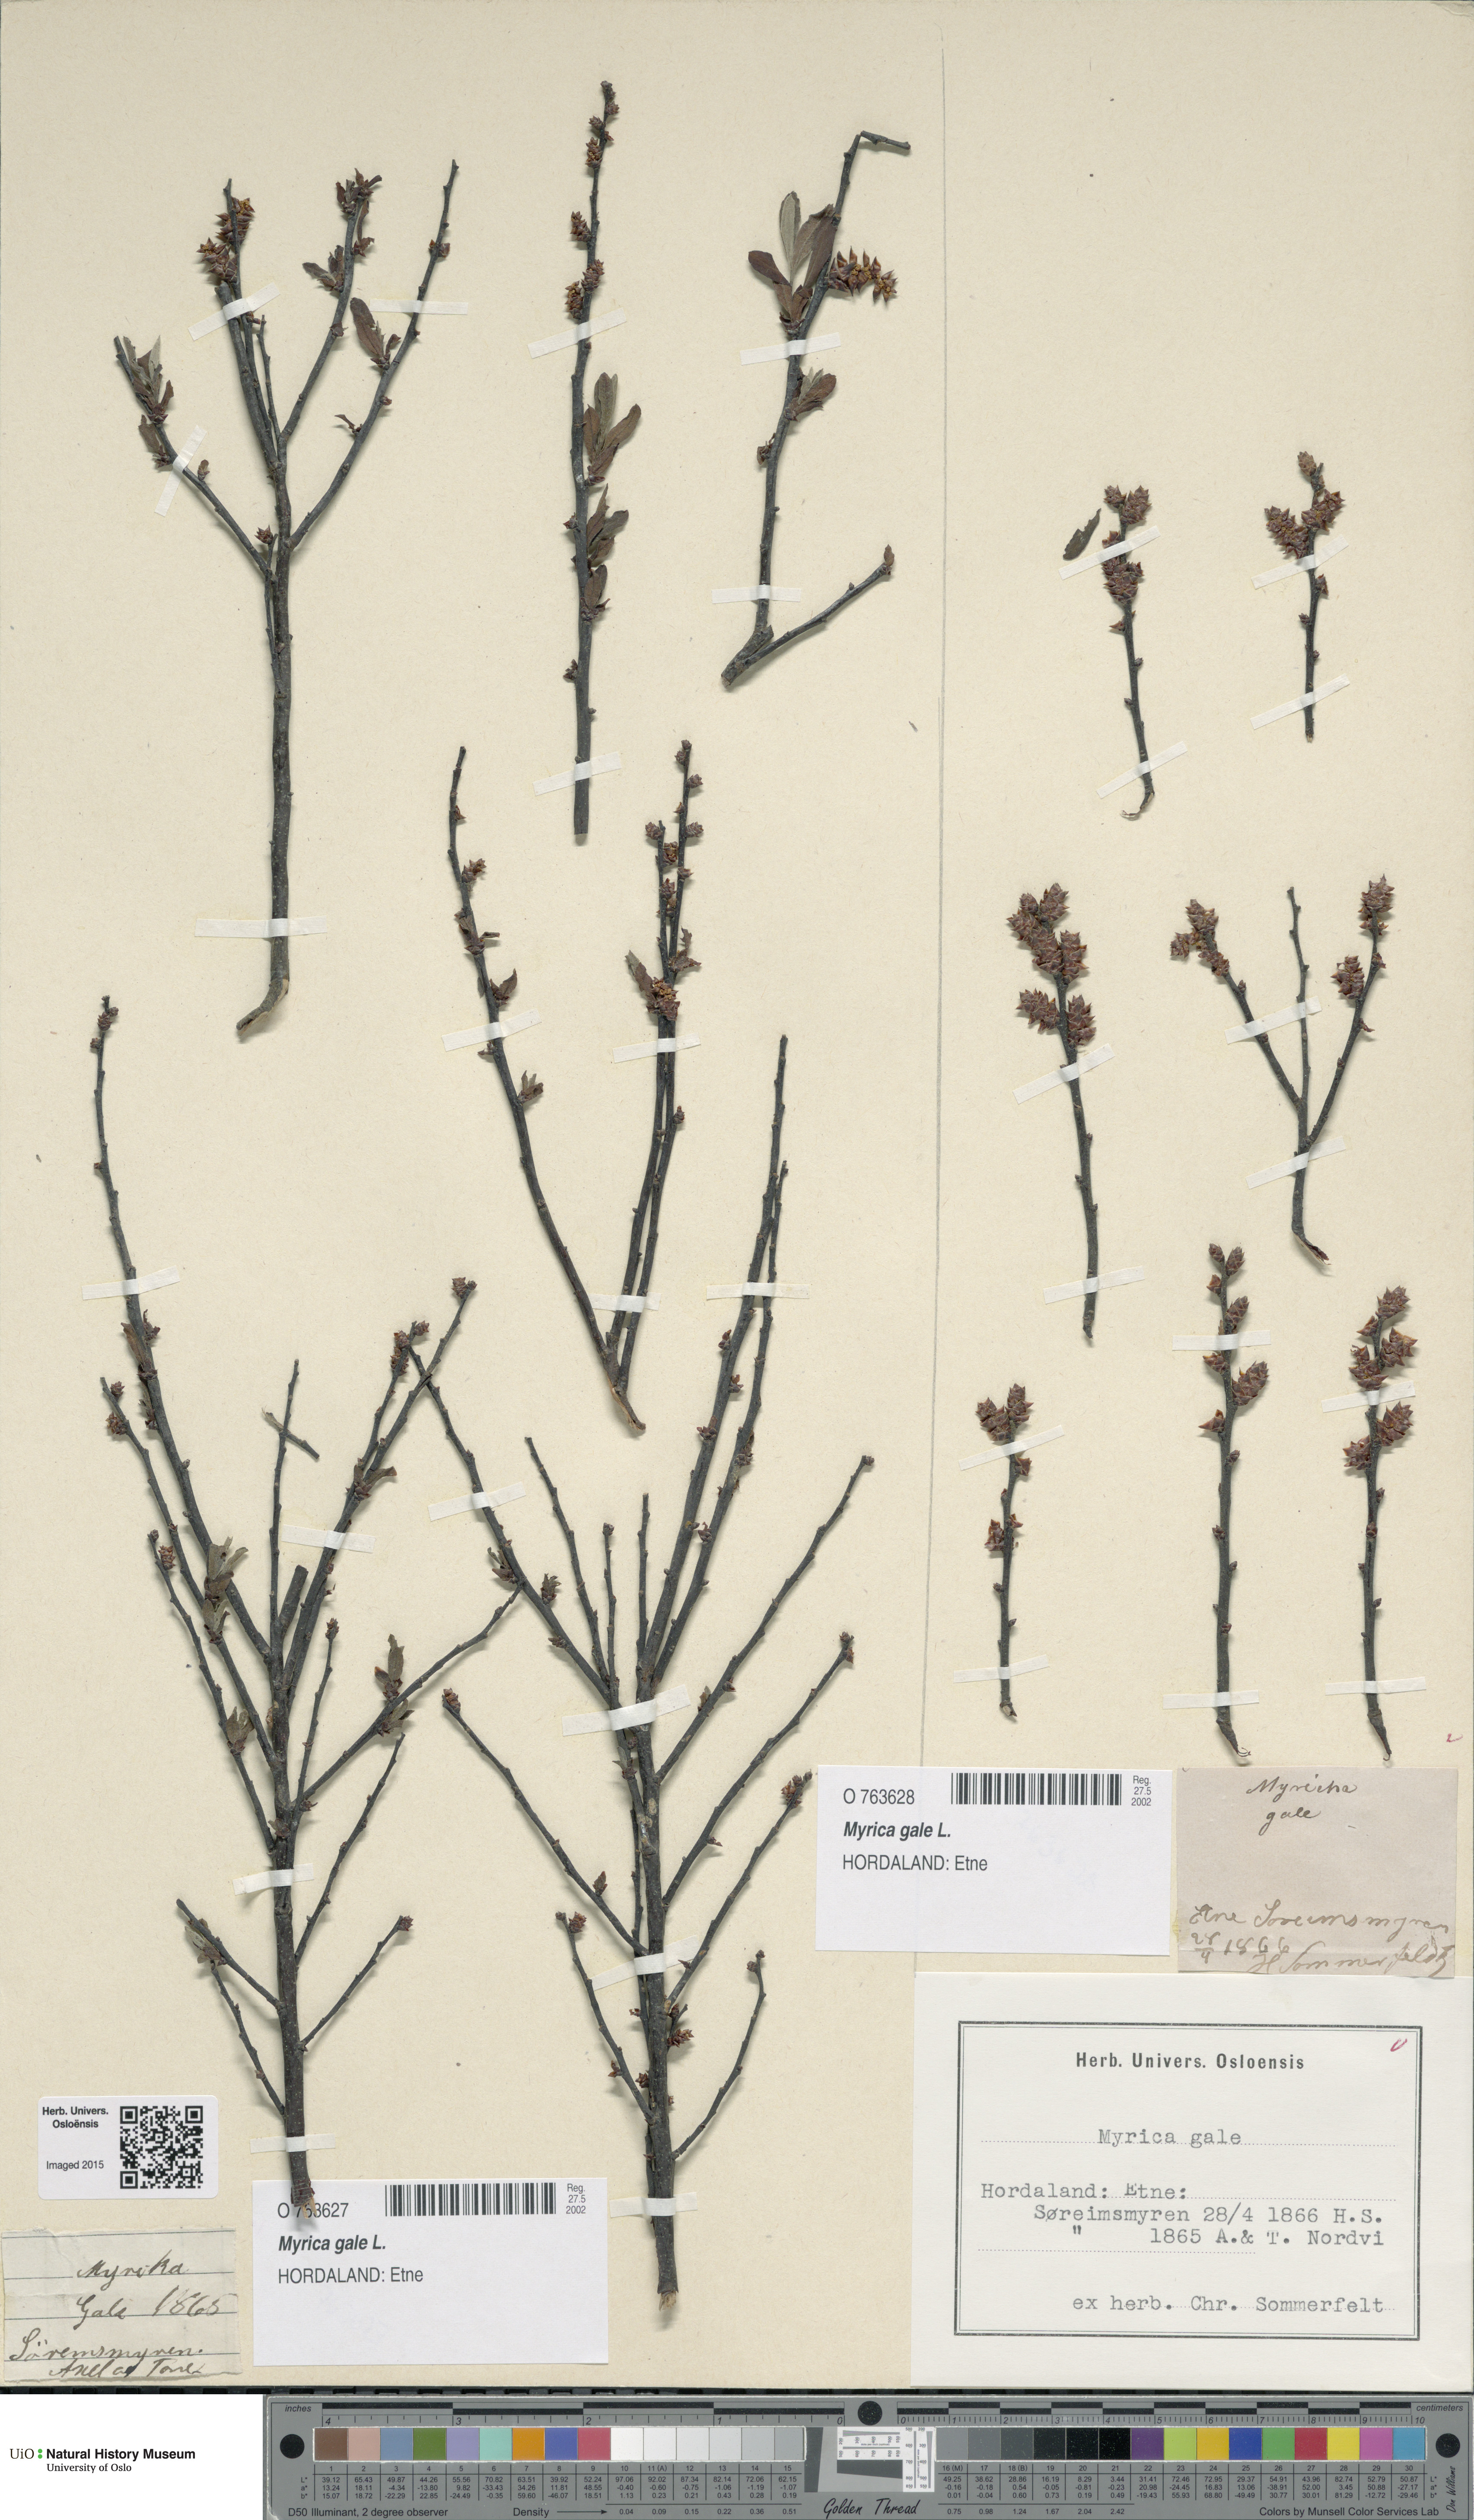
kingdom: Plantae
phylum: Tracheophyta
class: Magnoliopsida
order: Fagales
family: Myricaceae
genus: Myrica
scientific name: Myrica gale
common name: Sweet gale
